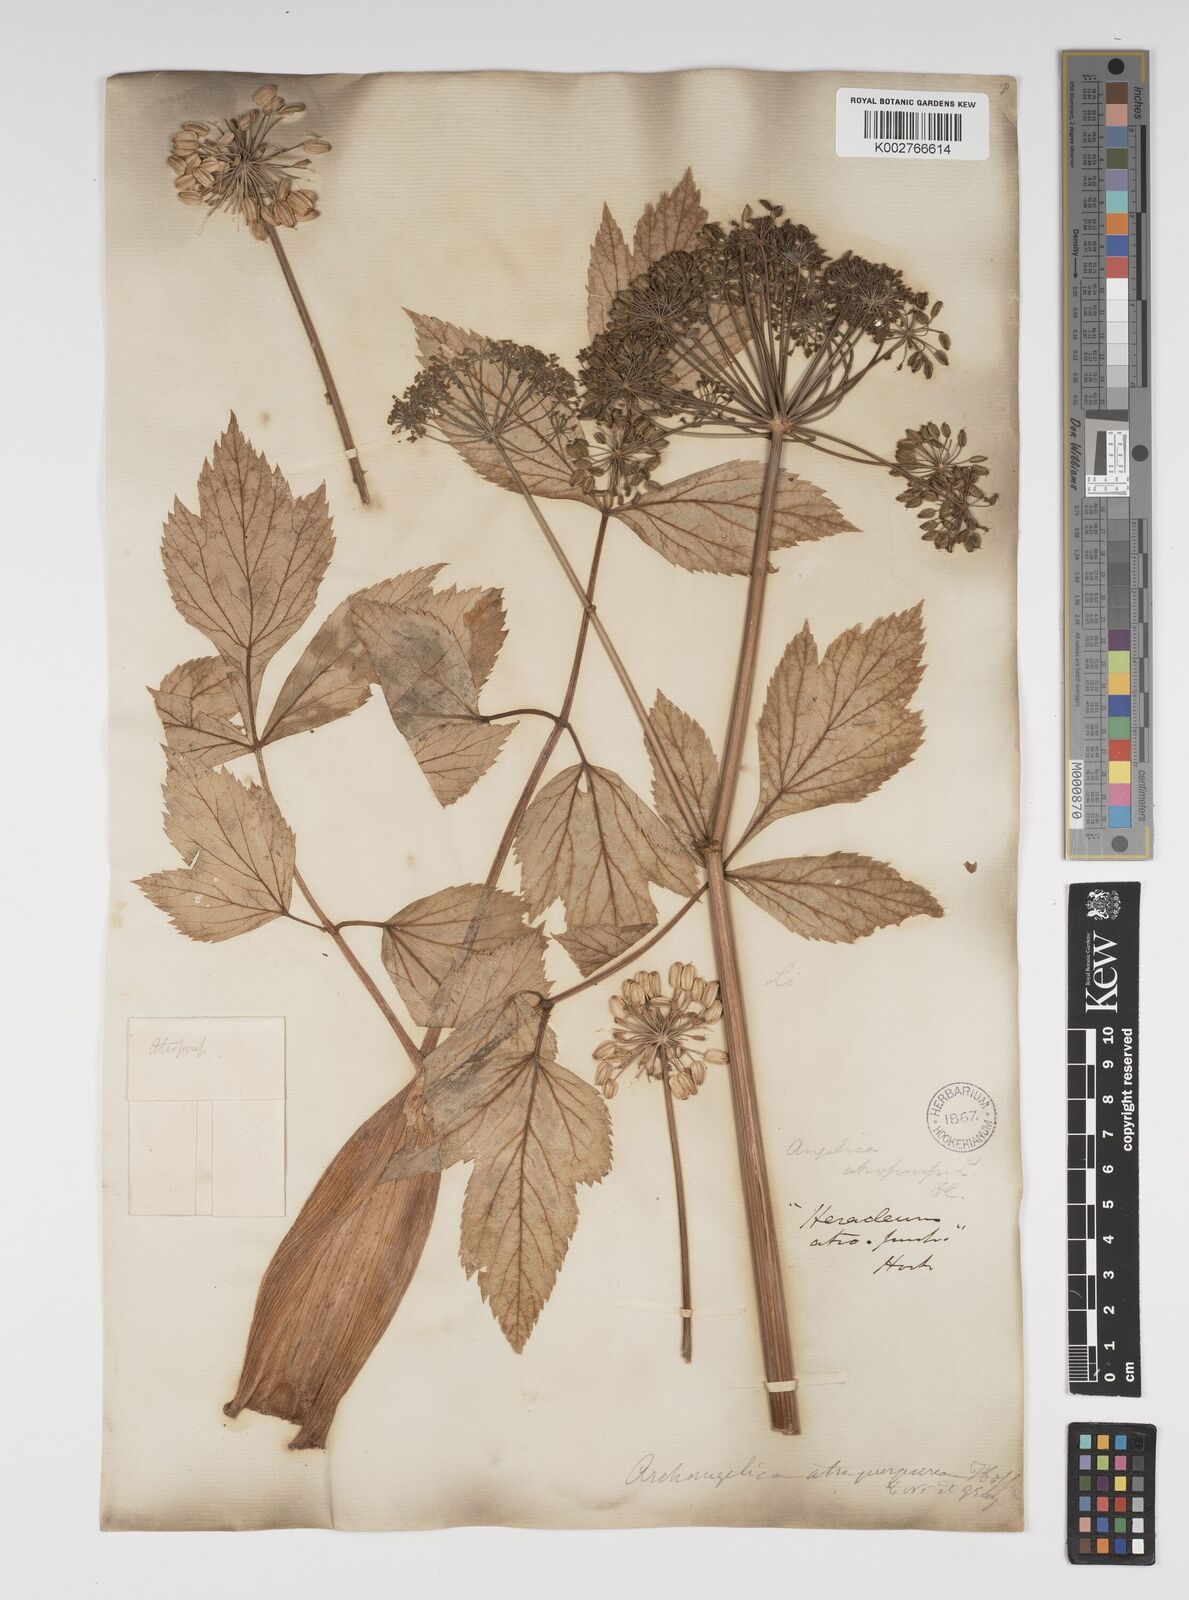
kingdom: Plantae
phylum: Tracheophyta
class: Magnoliopsida
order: Apiales
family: Apiaceae
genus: Angelica
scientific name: Angelica atropurpurea
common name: Great angelica
